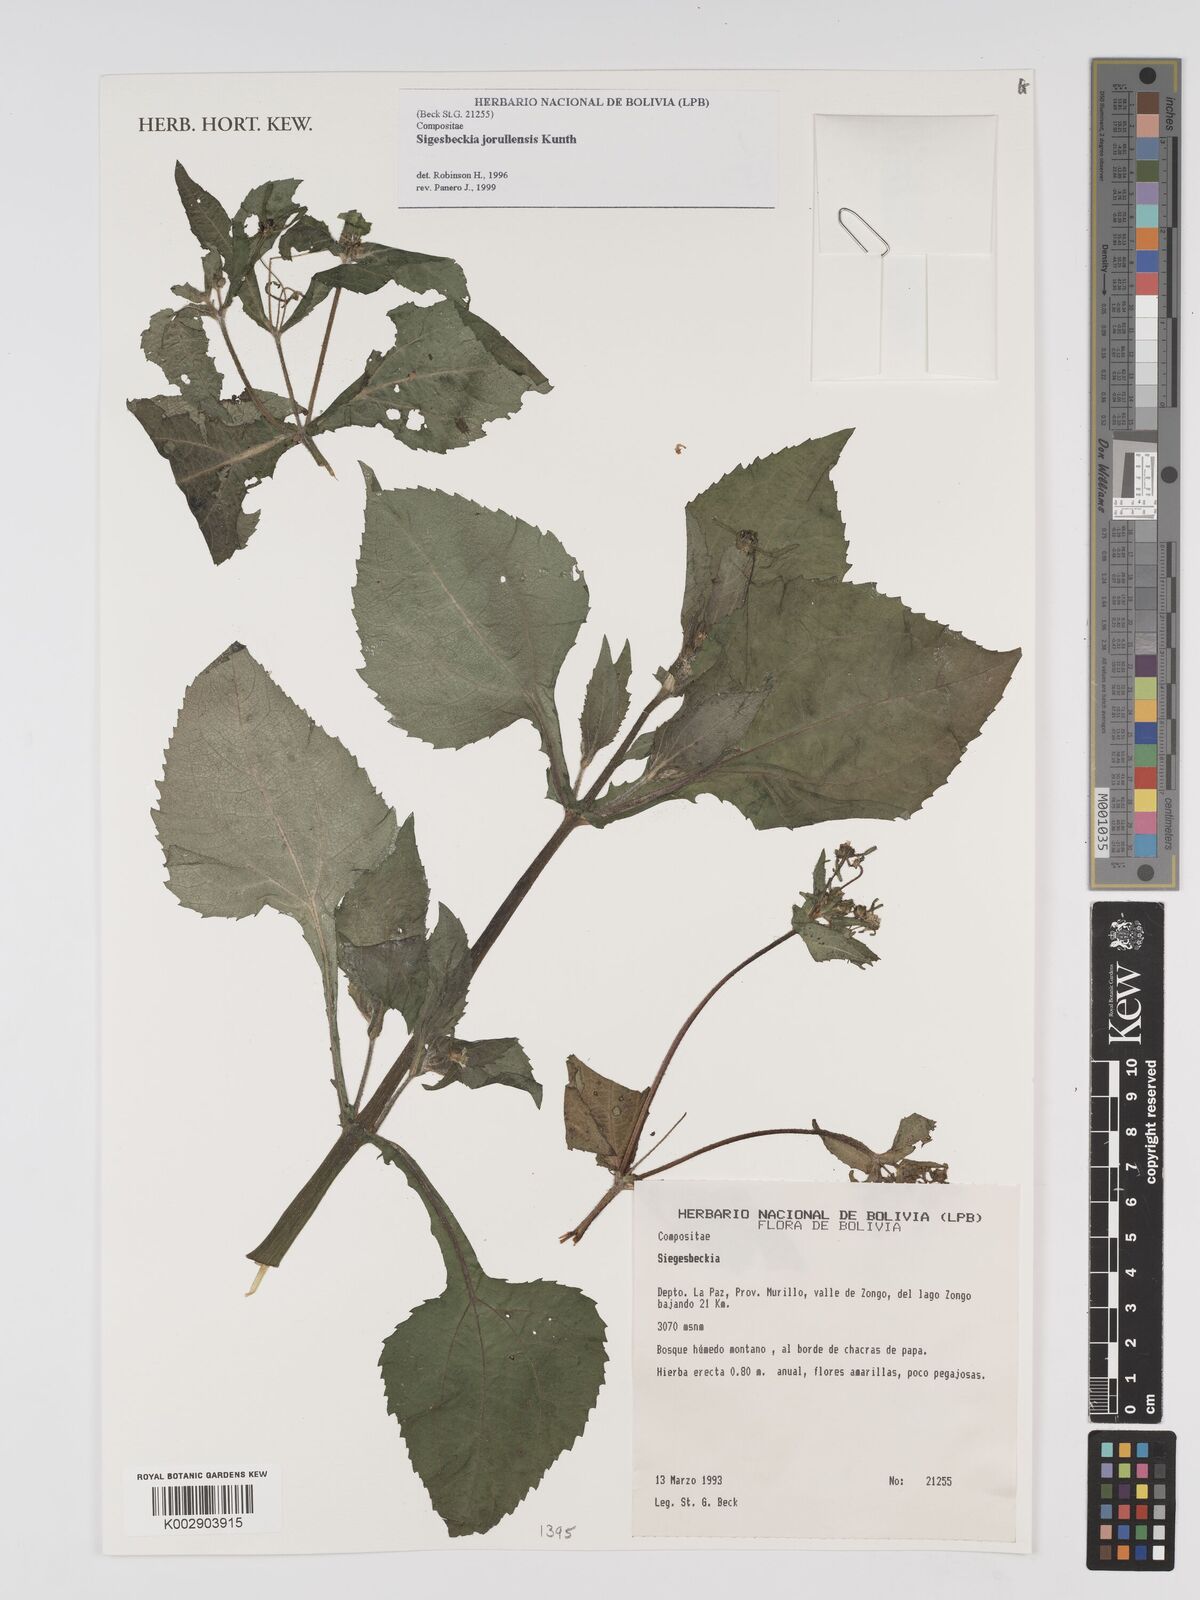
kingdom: Plantae
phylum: Tracheophyta
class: Magnoliopsida
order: Asterales
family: Asteraceae
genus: Sigesbeckia
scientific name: Sigesbeckia jorullensis
